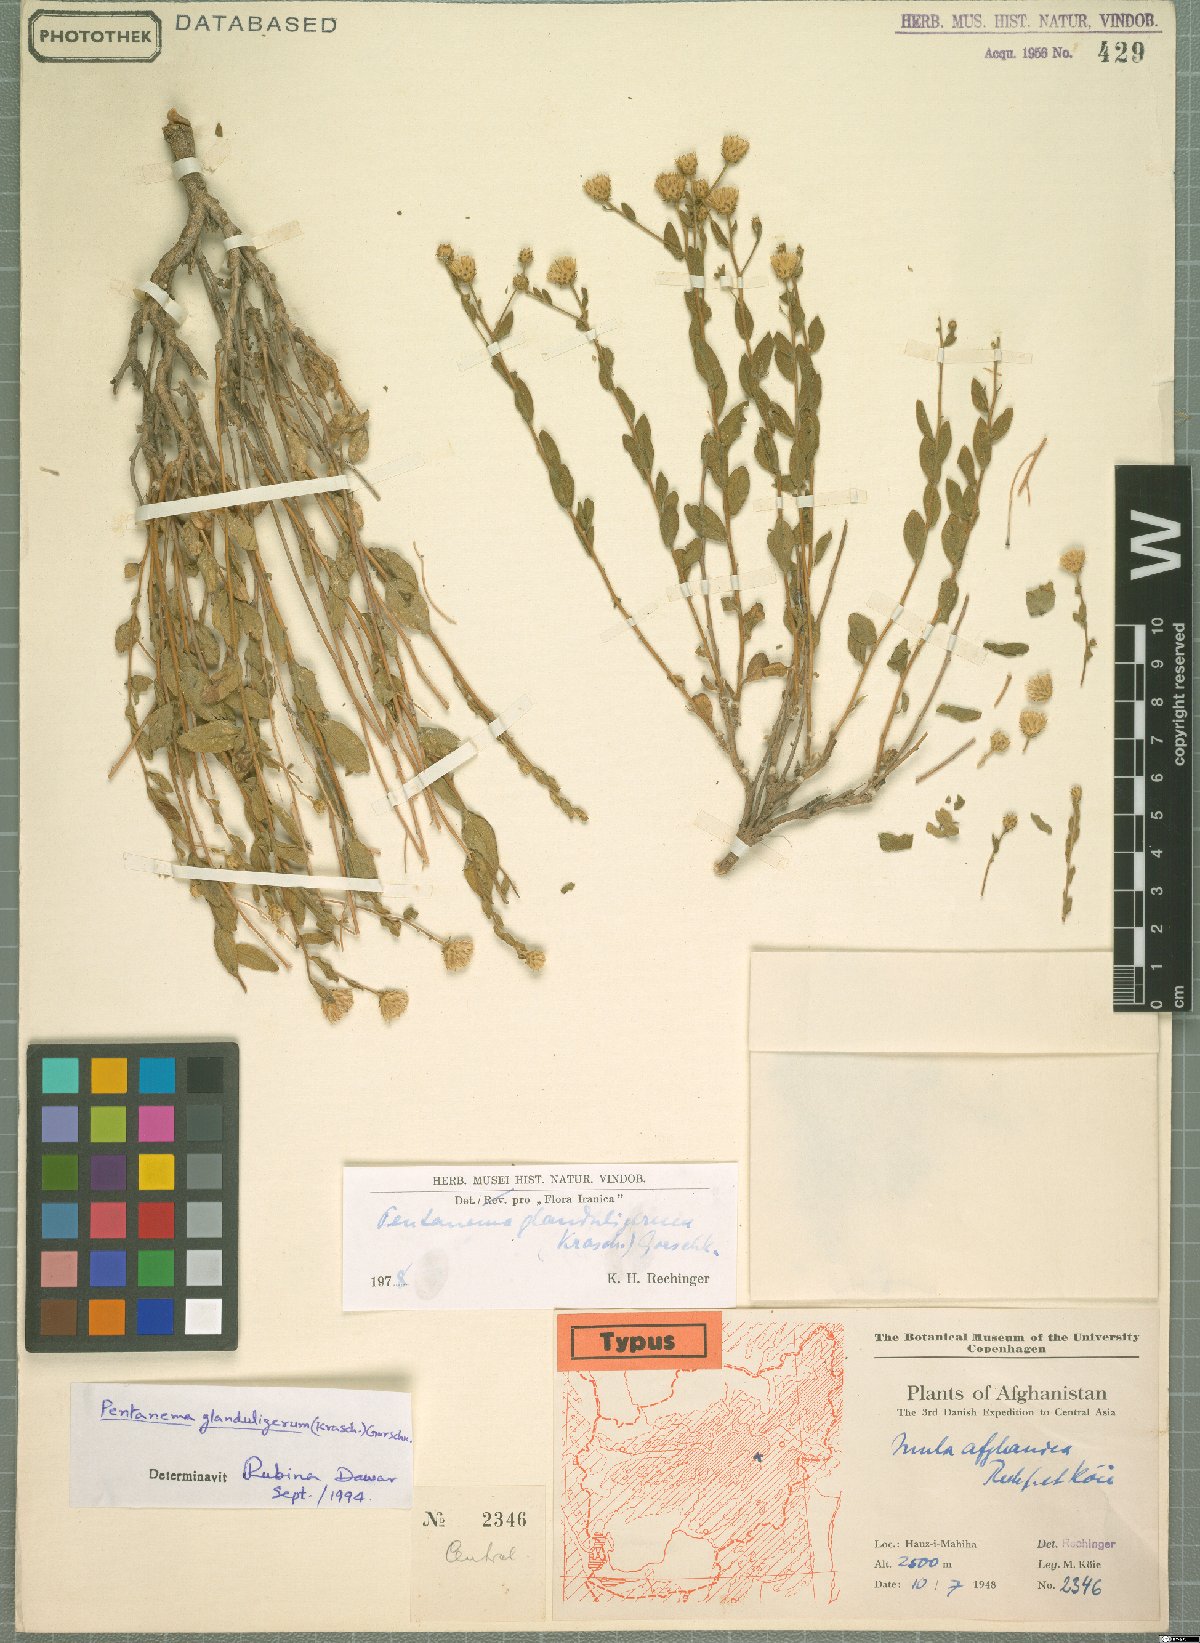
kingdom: Plantae
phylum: Tracheophyta
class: Magnoliopsida
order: Asterales
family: Asteraceae
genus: Vicoa
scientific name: Vicoa glanduligera
